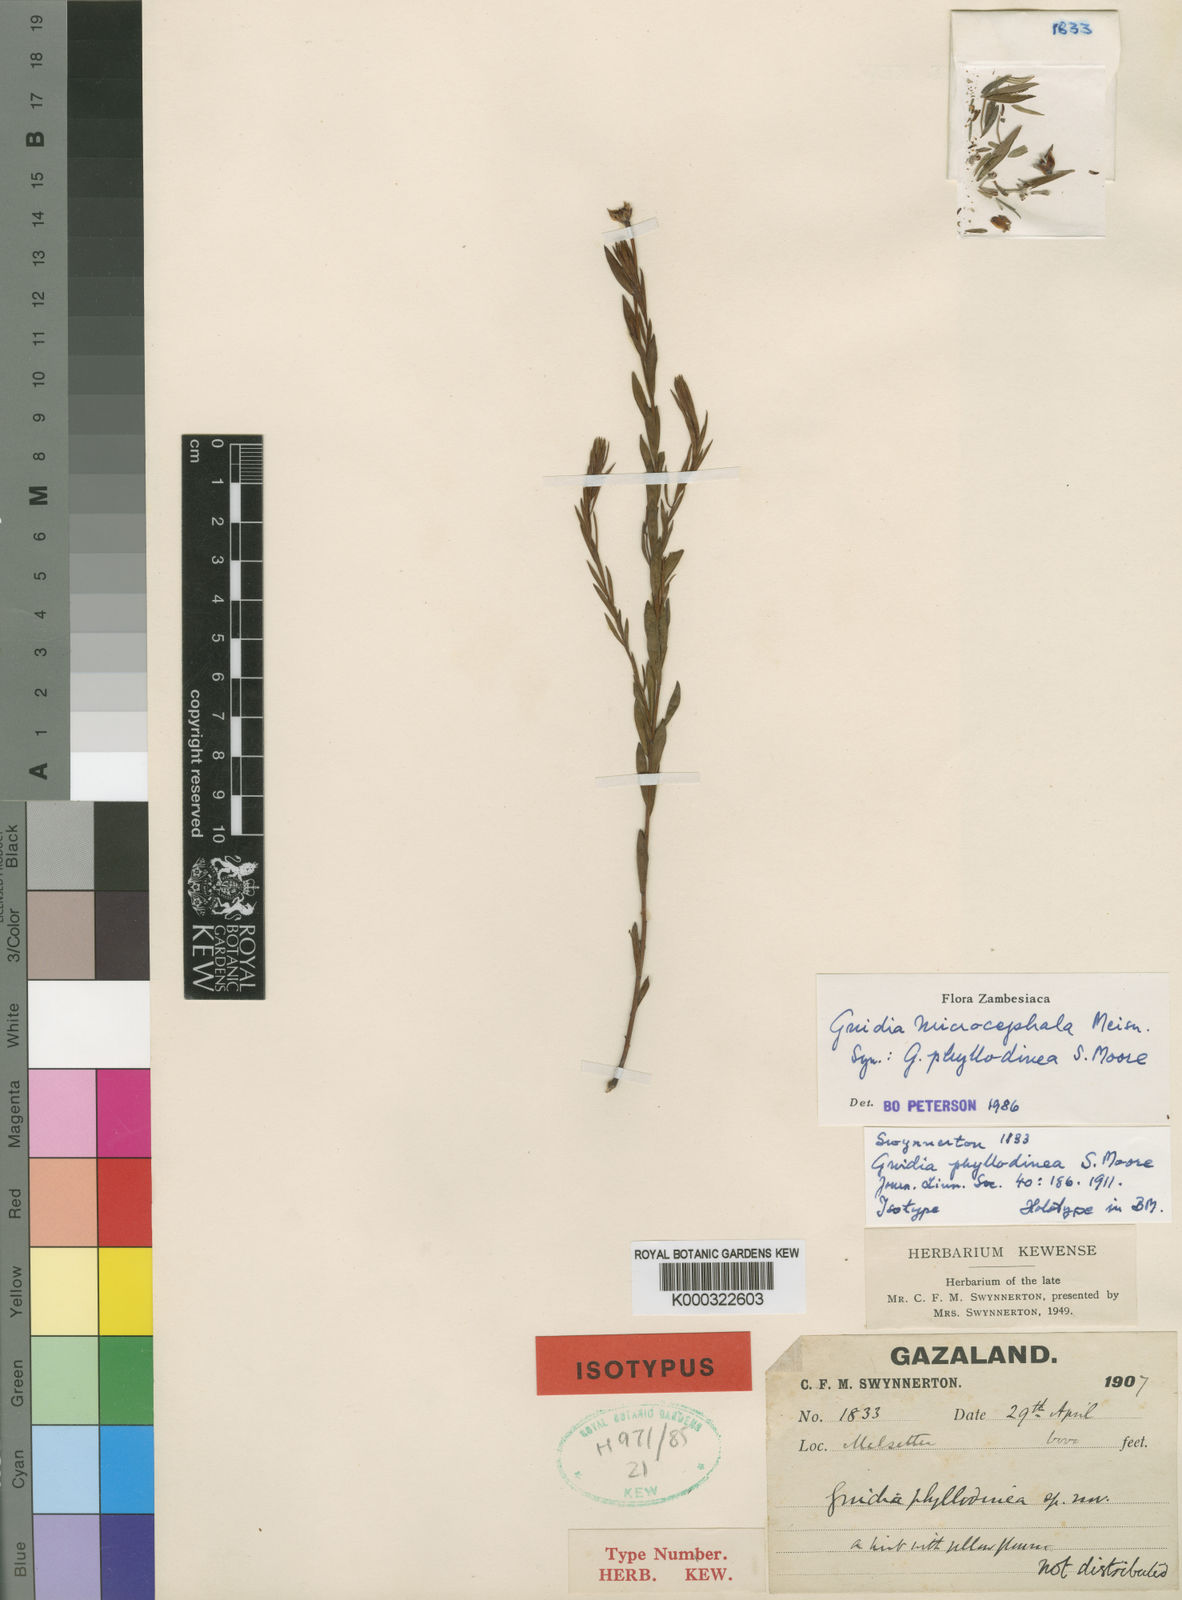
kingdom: Plantae
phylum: Tracheophyta
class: Magnoliopsida
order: Malvales
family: Thymelaeaceae
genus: Gnidia
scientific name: Gnidia microcephala
